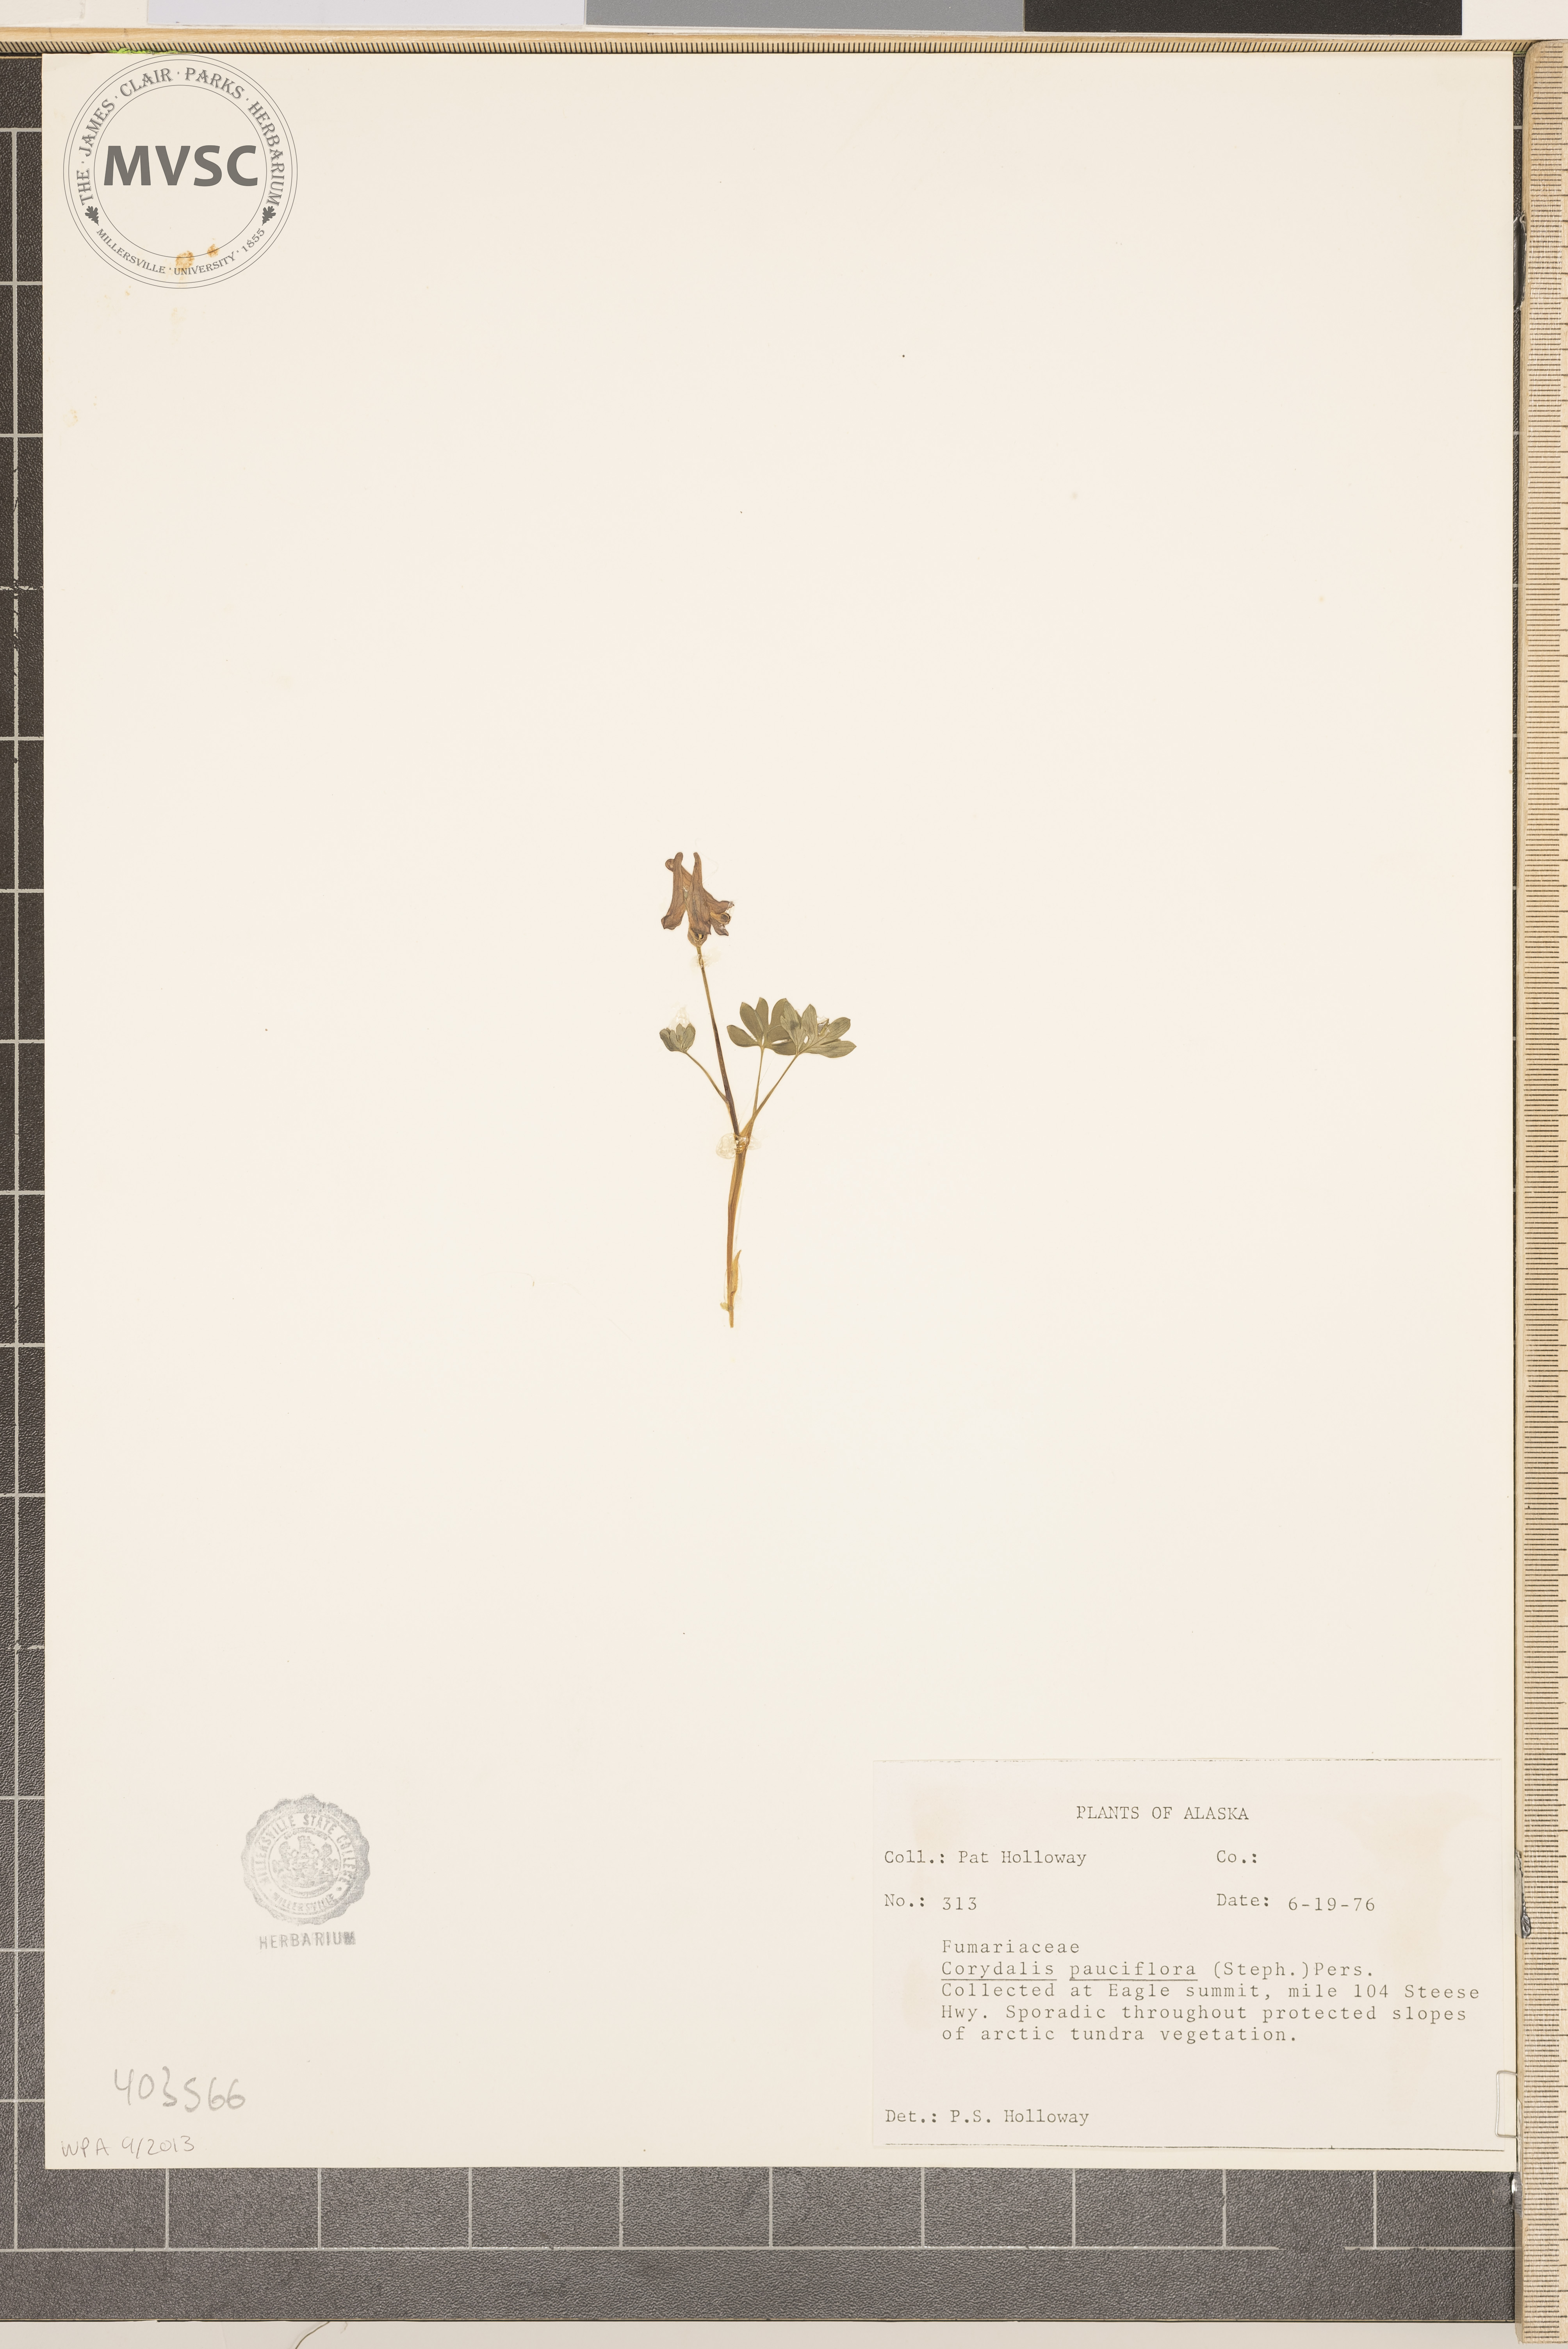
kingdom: Plantae
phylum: Tracheophyta
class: Magnoliopsida
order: Ranunculales
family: Papaveraceae
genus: Corydalis
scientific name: Corydalis pauciflora
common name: Blue corydalis
